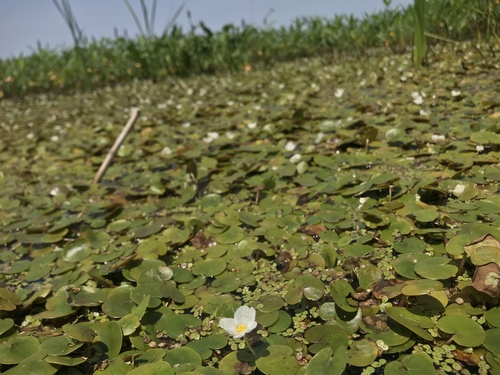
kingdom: Plantae
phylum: Tracheophyta
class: Liliopsida
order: Alismatales
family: Hydrocharitaceae
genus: Hydrocharis
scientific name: Hydrocharis morsus-ranae
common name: European frog-bit
